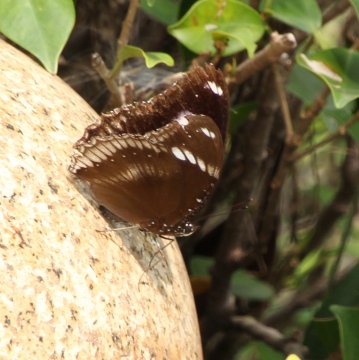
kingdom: Animalia
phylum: Arthropoda
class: Insecta
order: Lepidoptera
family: Nymphalidae
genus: Hypolimnas
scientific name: Hypolimnas bolina
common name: Great Eggfly
